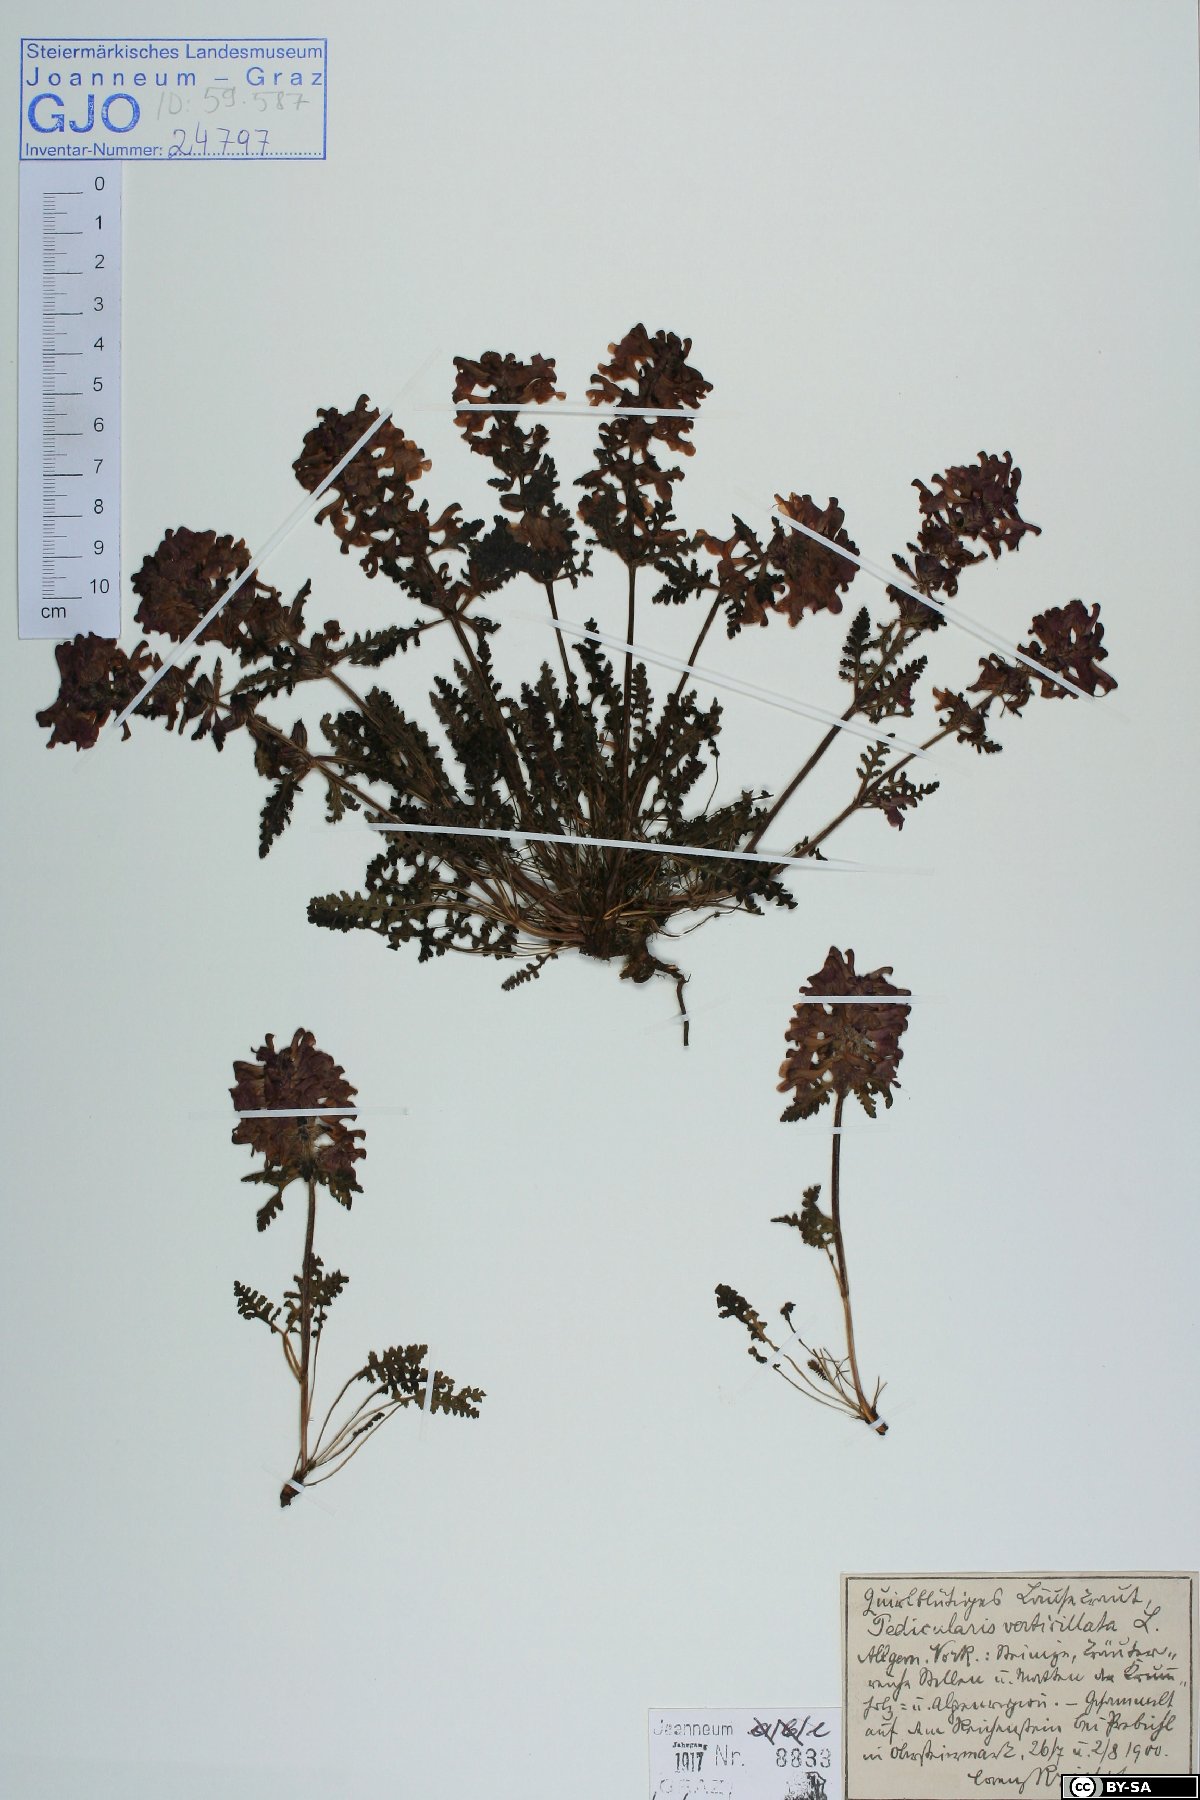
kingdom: Plantae
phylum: Tracheophyta
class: Magnoliopsida
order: Lamiales
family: Orobanchaceae
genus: Pedicularis
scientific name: Pedicularis verticillata
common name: Whorled lousewort
